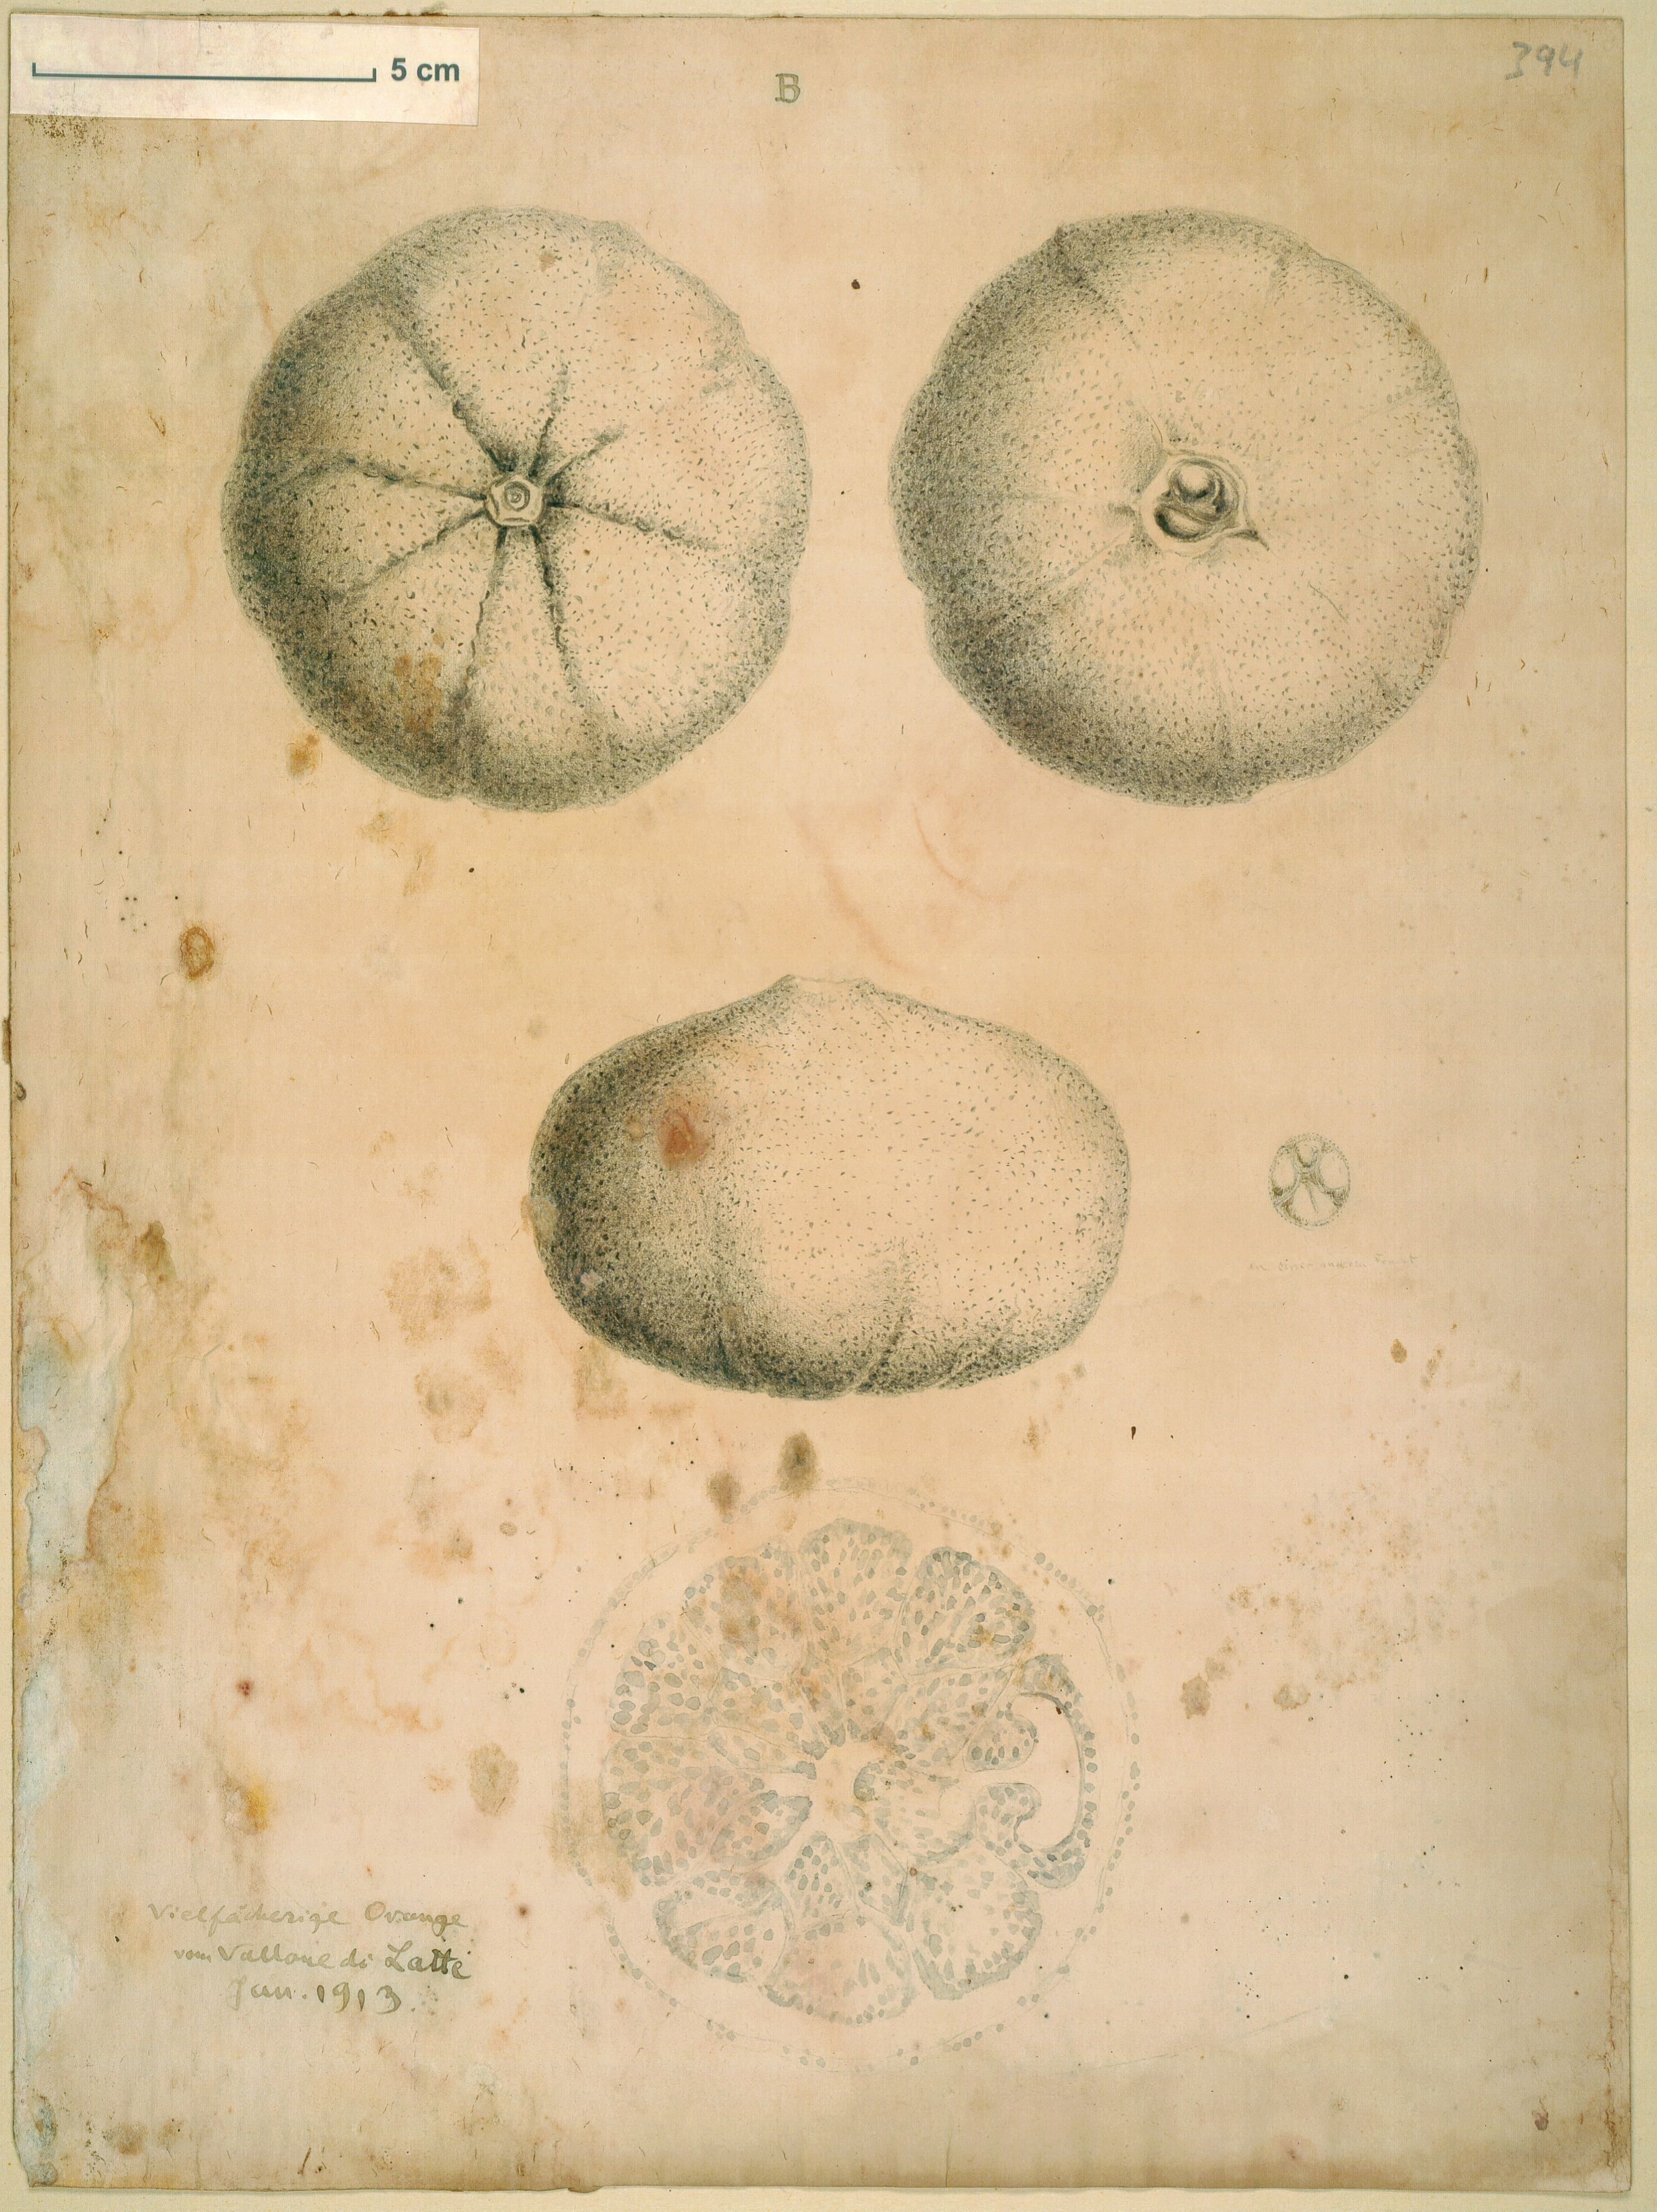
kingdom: Plantae
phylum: Tracheophyta
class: Magnoliopsida
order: Sapindales
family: Rutaceae
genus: Citrus
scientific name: Citrus
